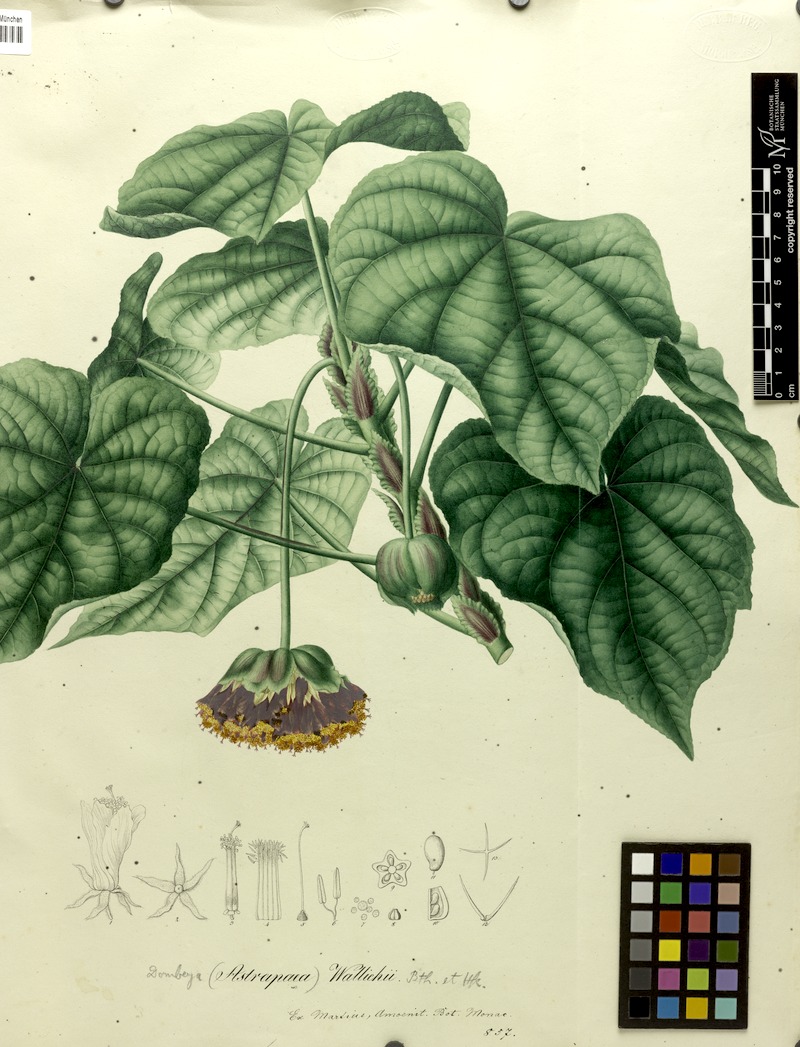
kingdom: Plantae
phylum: Tracheophyta
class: Magnoliopsida
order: Malvales
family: Malvaceae
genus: Dombeya
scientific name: Dombeya wallichii
